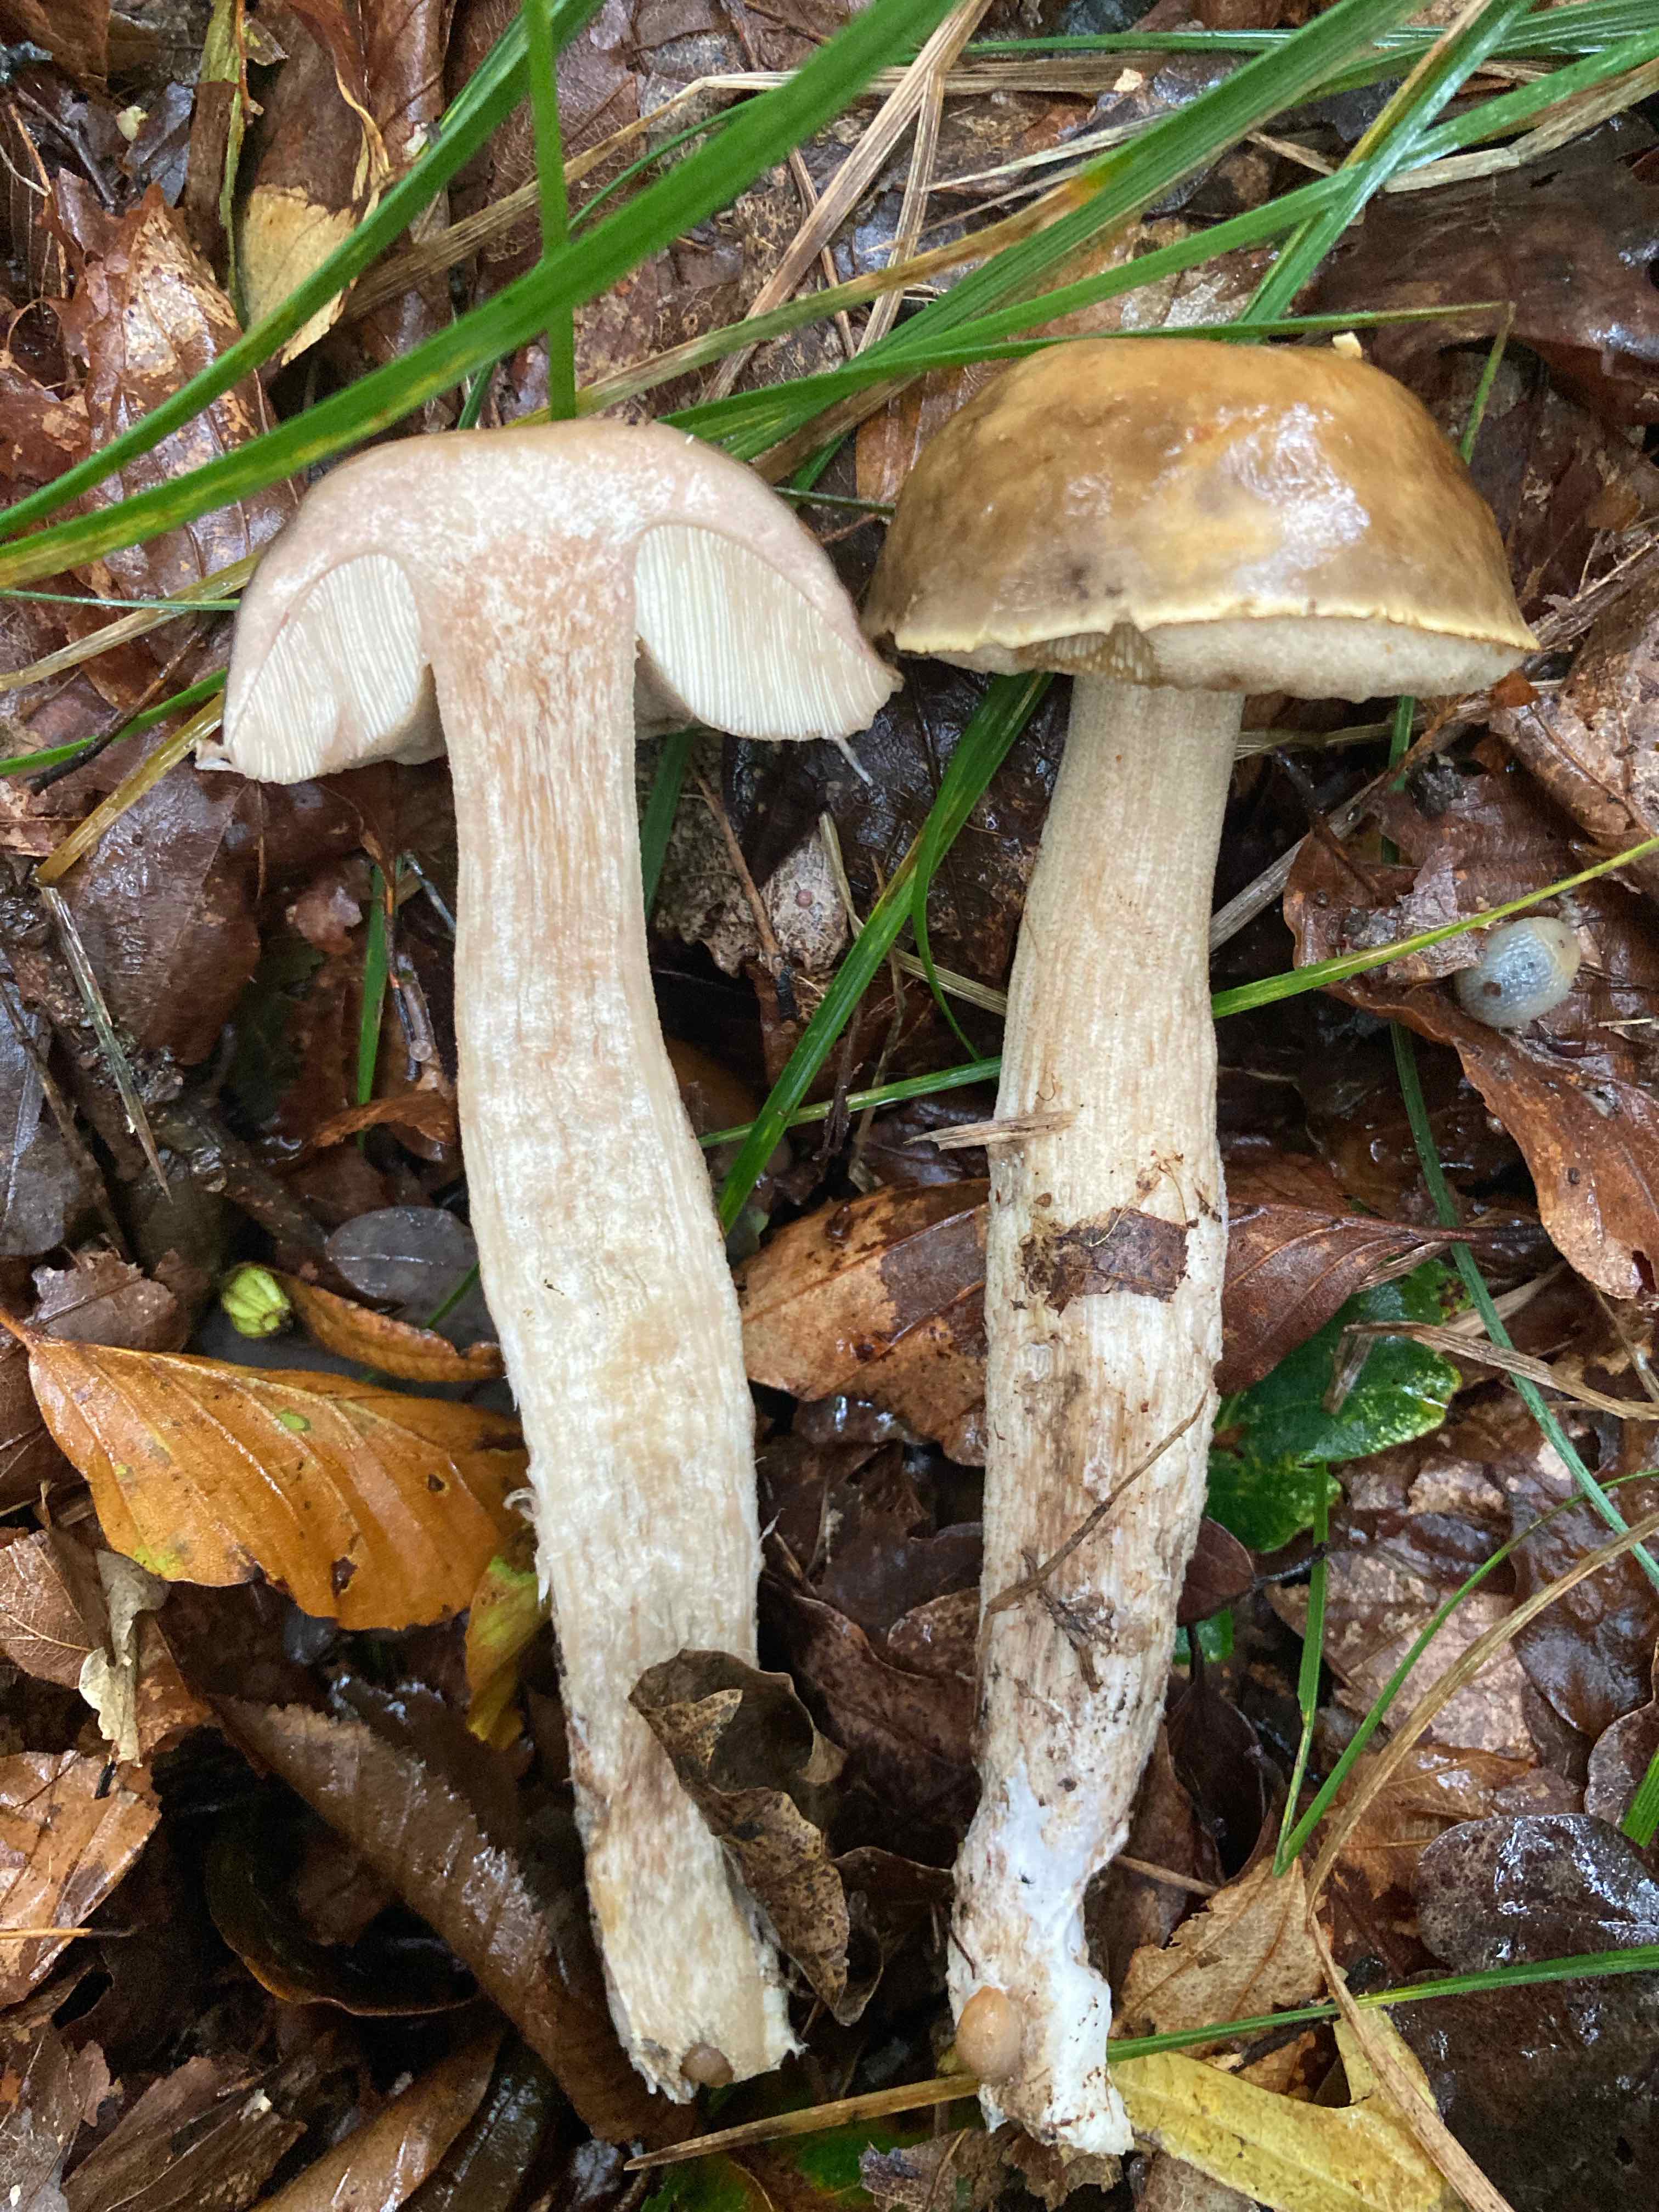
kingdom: Fungi
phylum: Basidiomycota
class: Agaricomycetes
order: Boletales
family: Boletaceae
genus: Leccinellum
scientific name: Leccinellum pseudoscabrum
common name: avnbøg-skælrørhat
